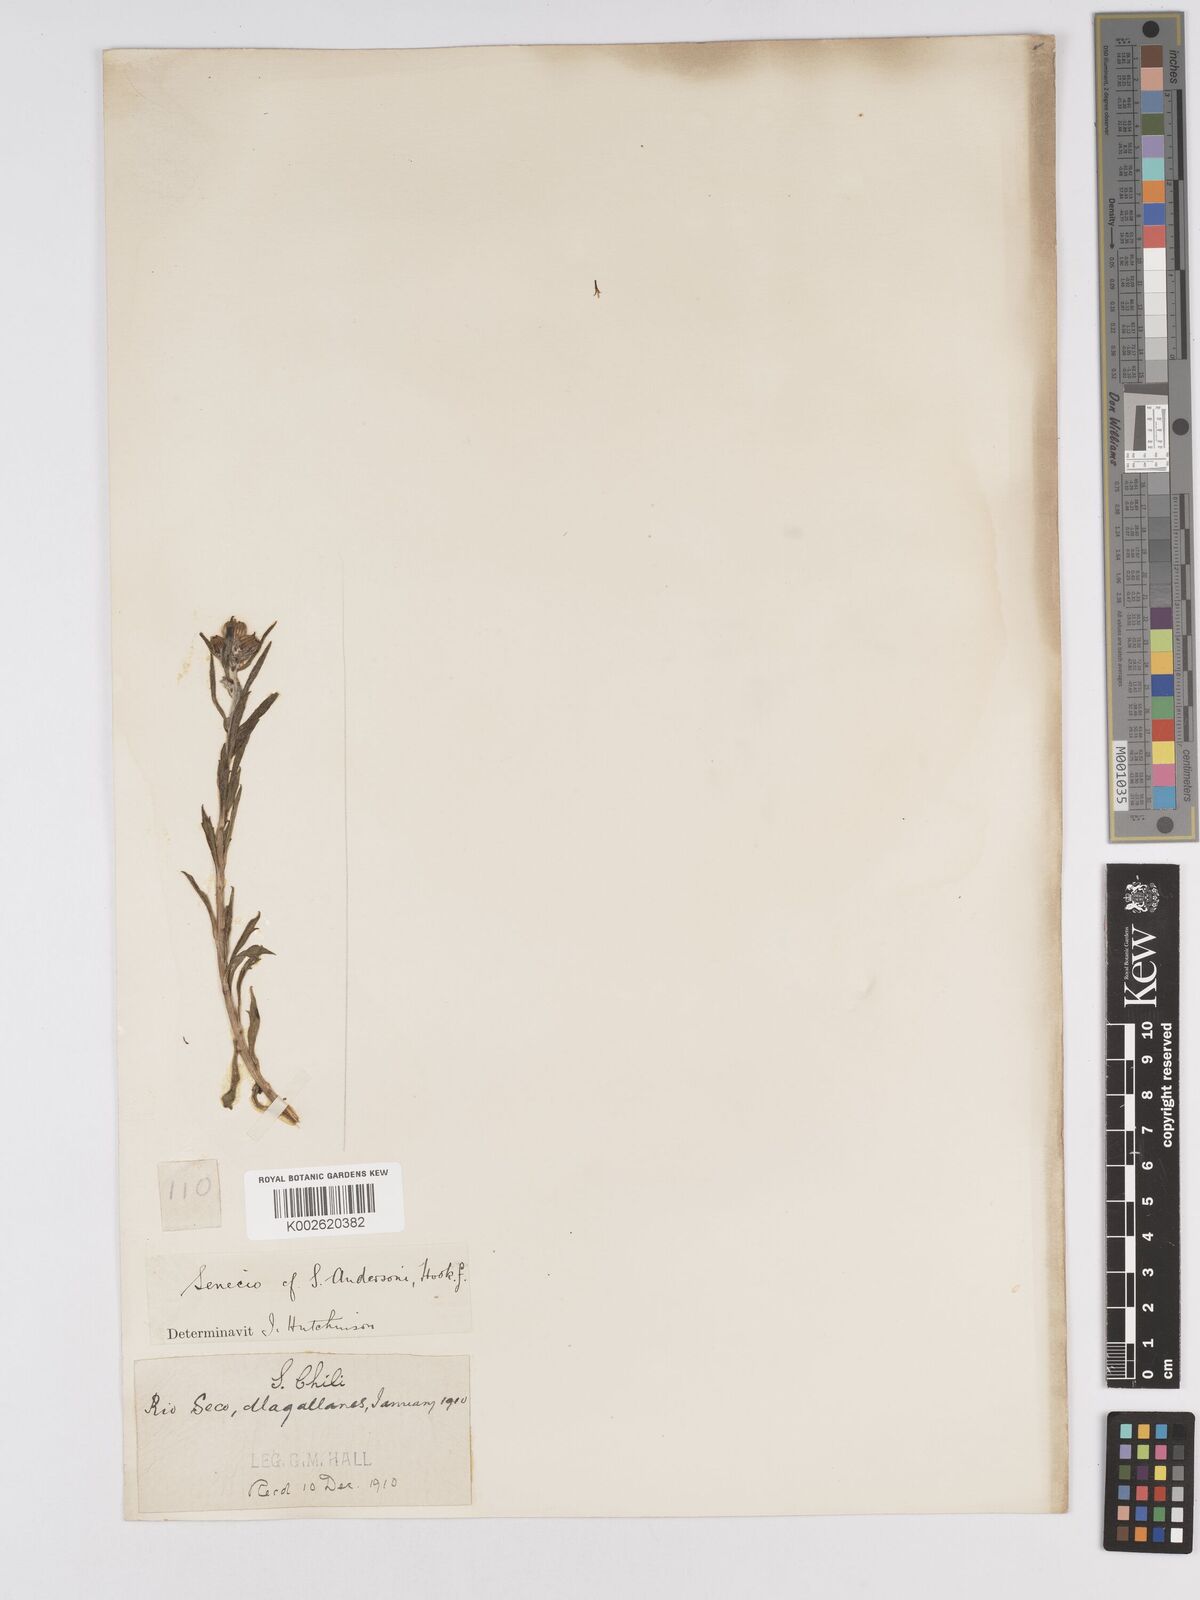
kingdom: Plantae
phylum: Tracheophyta
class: Magnoliopsida
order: Asterales
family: Asteraceae
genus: Senecio
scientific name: Senecio patagonicus
